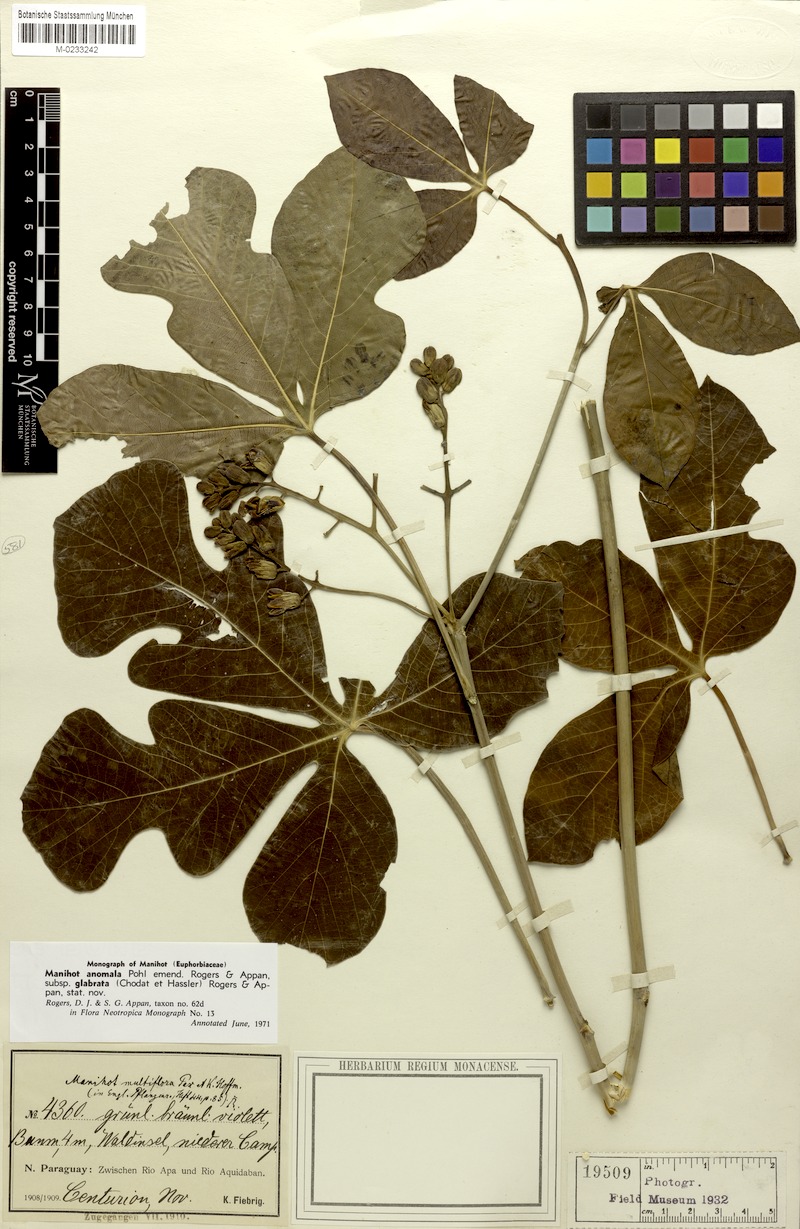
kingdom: Plantae
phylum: Tracheophyta
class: Magnoliopsida
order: Malpighiales
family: Euphorbiaceae
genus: Manihot
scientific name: Manihot anomala
